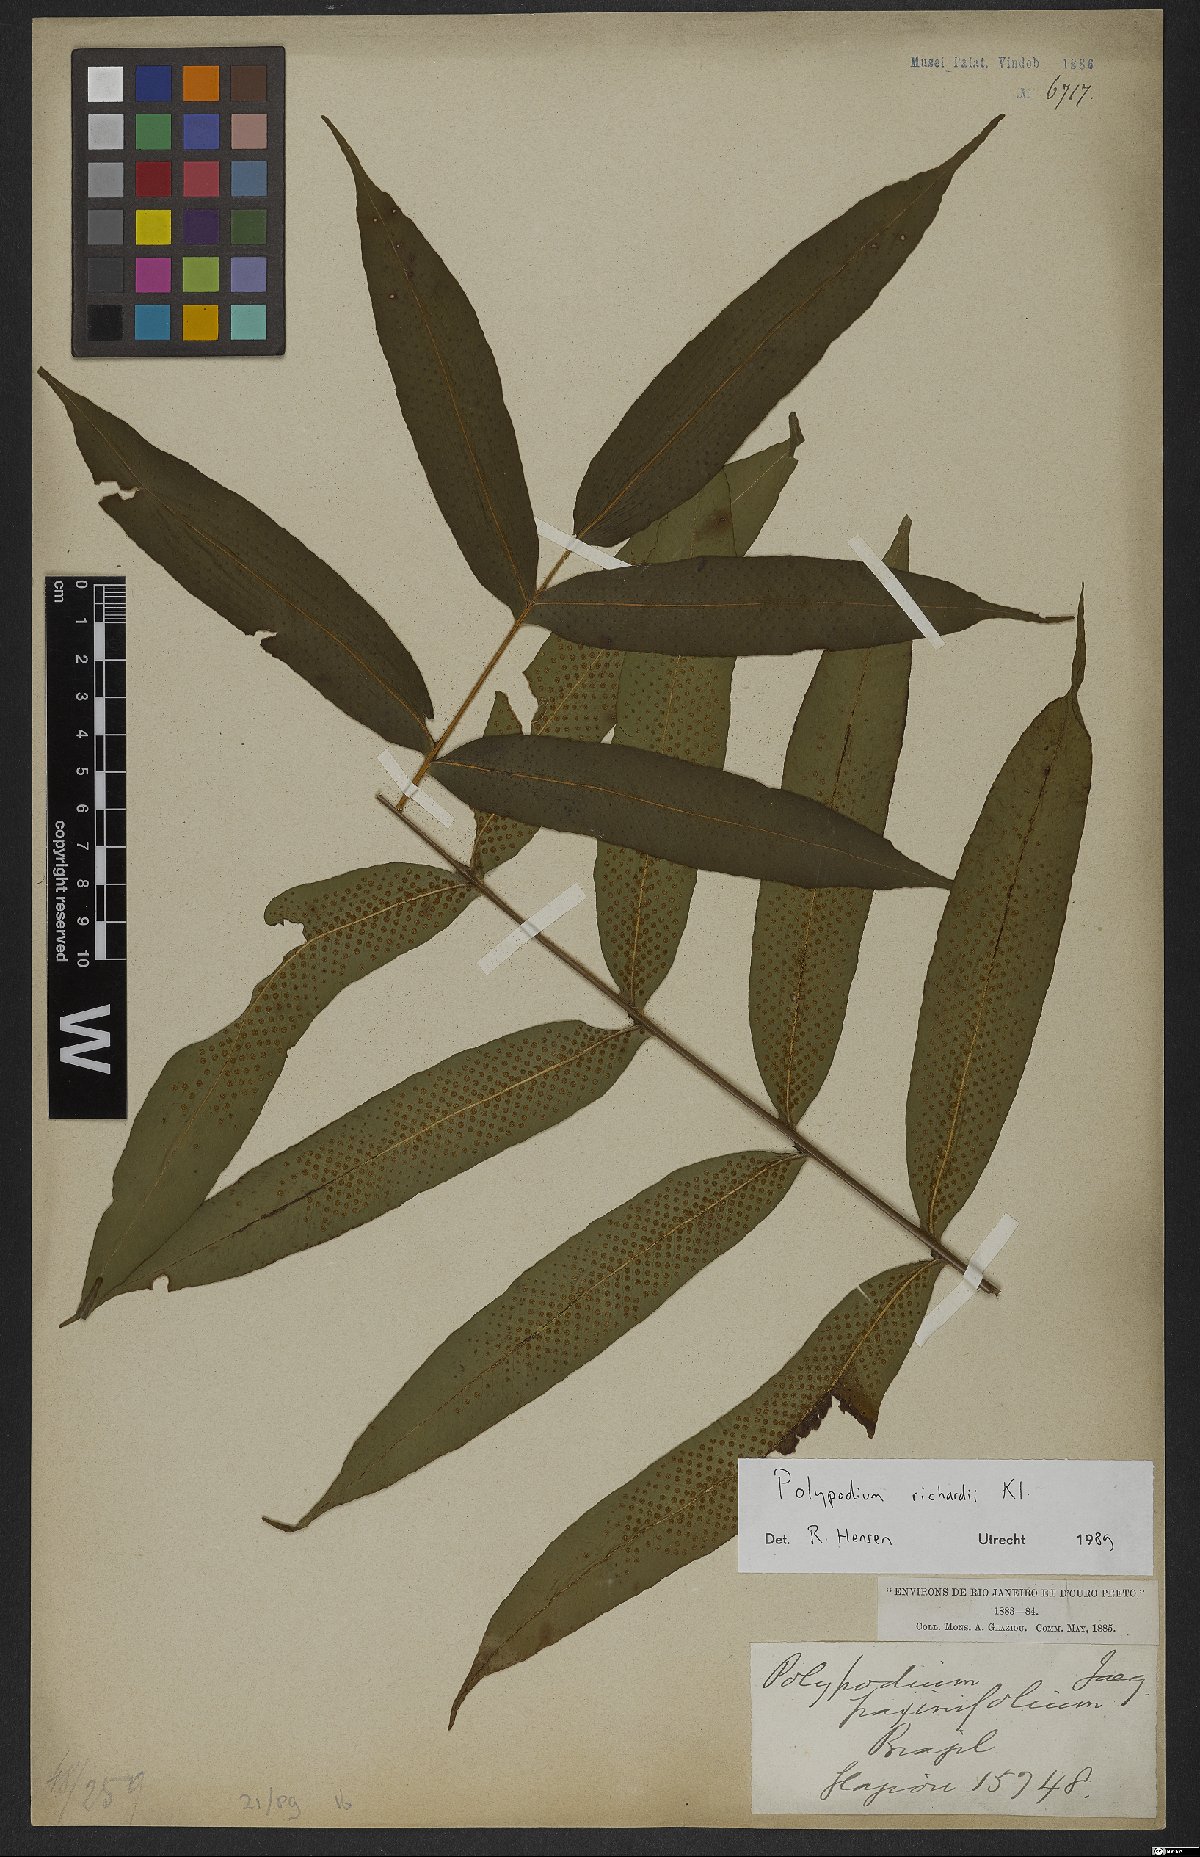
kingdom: Plantae
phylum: Tracheophyta
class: Polypodiopsida
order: Polypodiales
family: Polypodiaceae
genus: Serpocaulon
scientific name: Serpocaulon richardii
